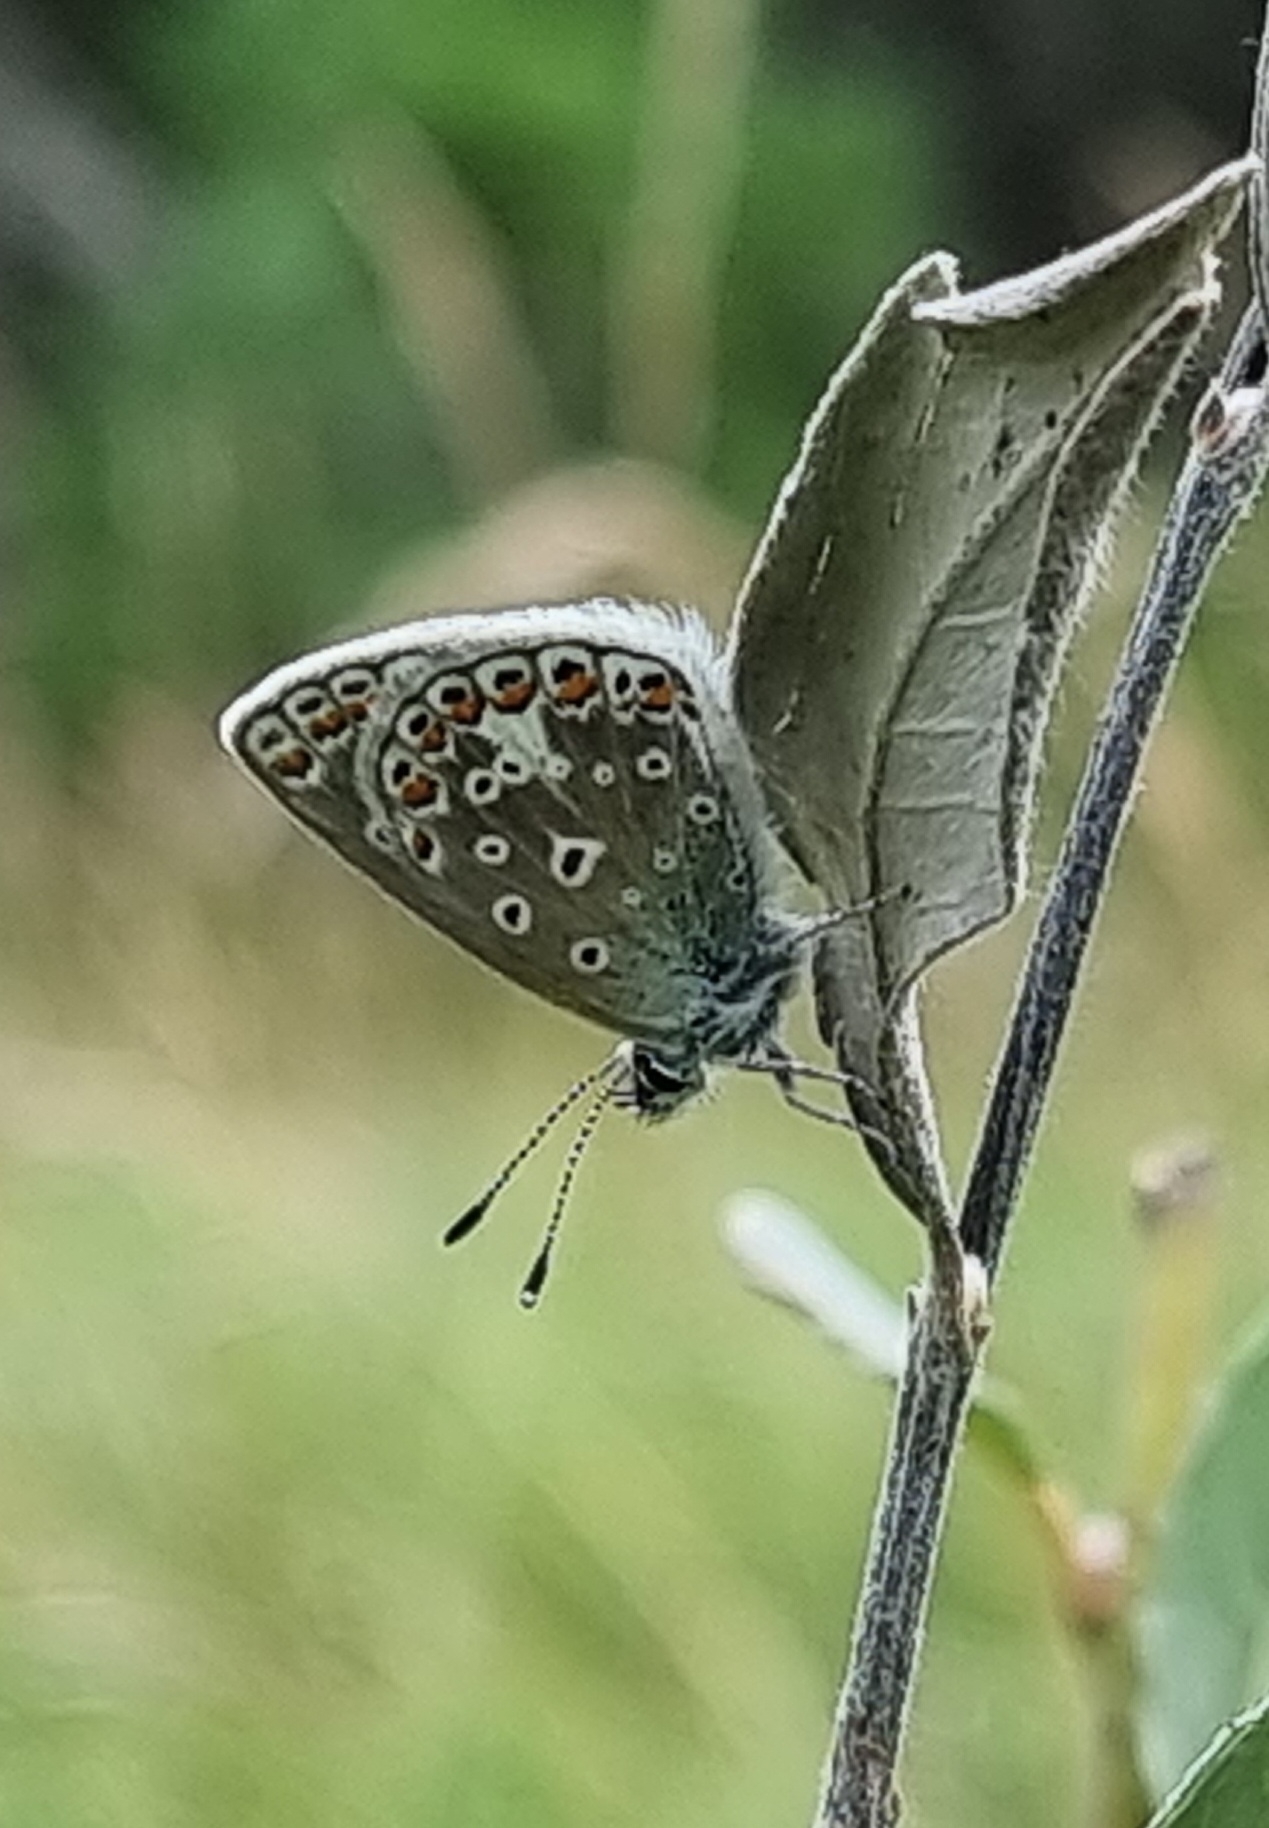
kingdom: Animalia
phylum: Arthropoda
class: Insecta
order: Lepidoptera
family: Lycaenidae
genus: Polyommatus
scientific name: Polyommatus icarus
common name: Almindelig blåfugl
